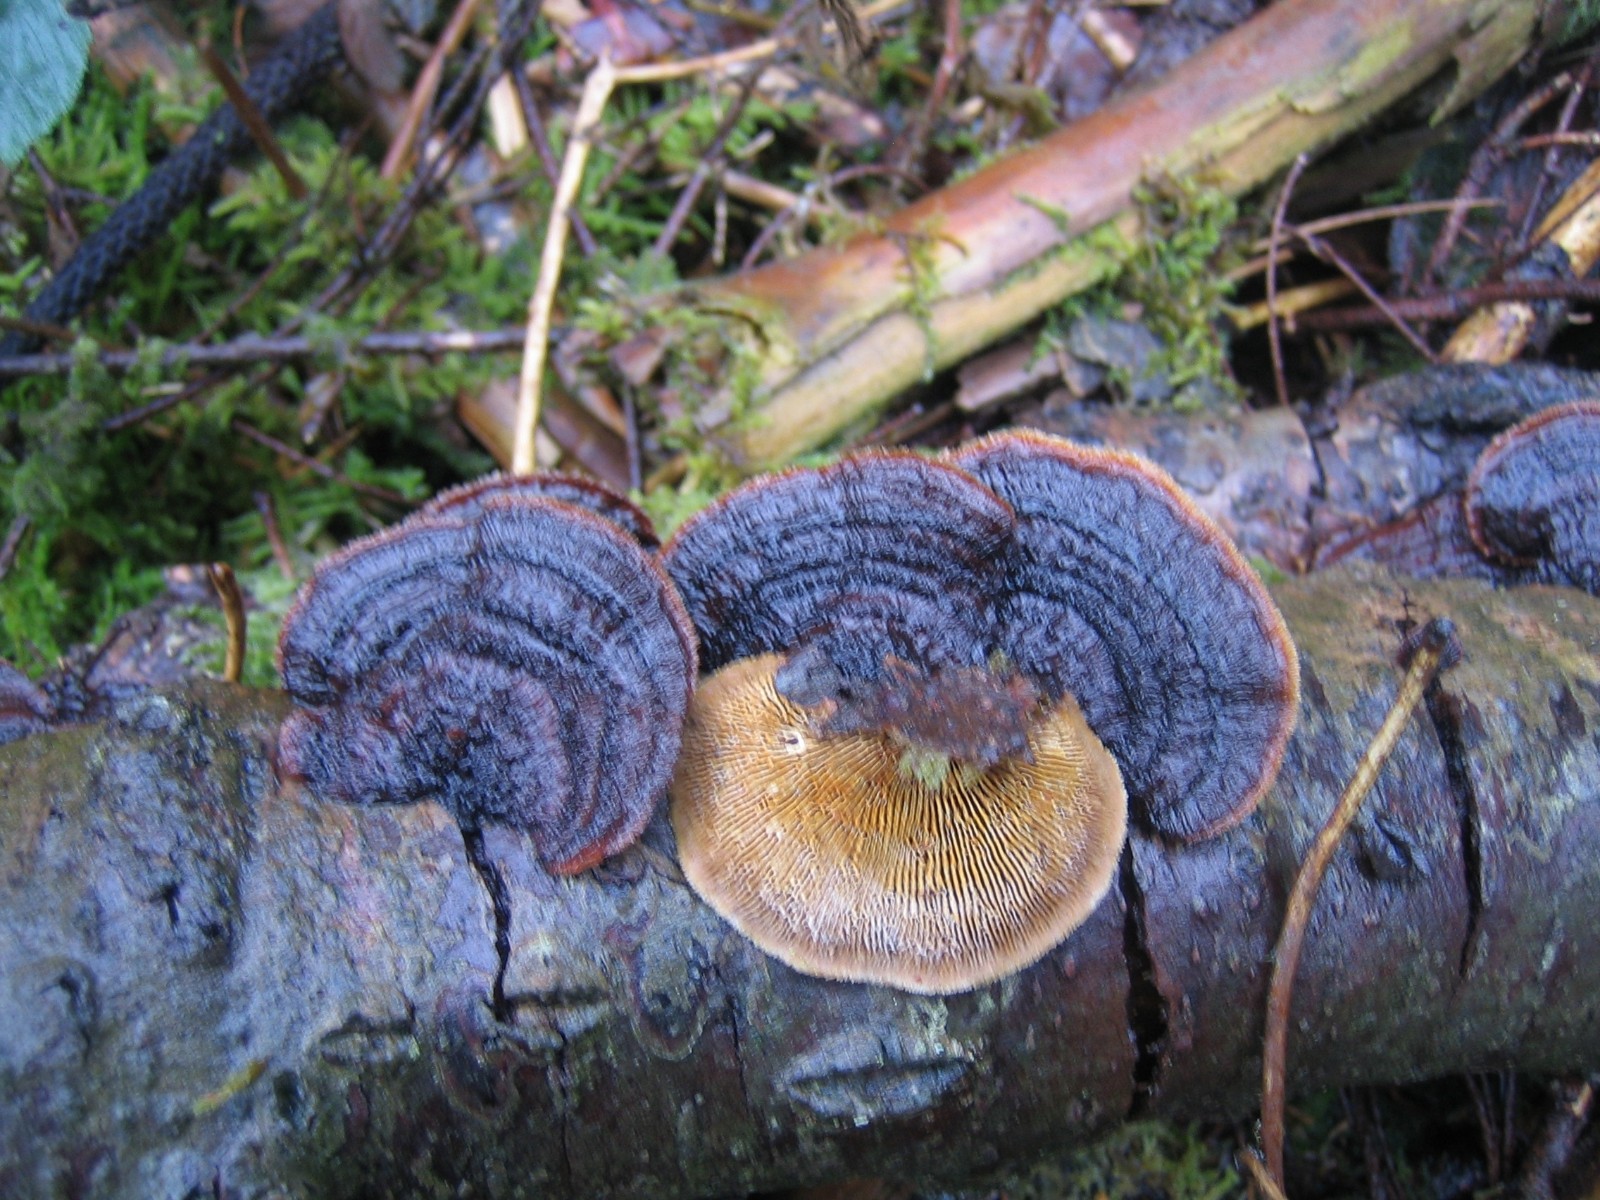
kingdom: Fungi
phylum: Basidiomycota
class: Agaricomycetes
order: Gloeophyllales
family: Gloeophyllaceae
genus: Gloeophyllum
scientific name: Gloeophyllum sepiarium
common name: fyrre-korkhat
